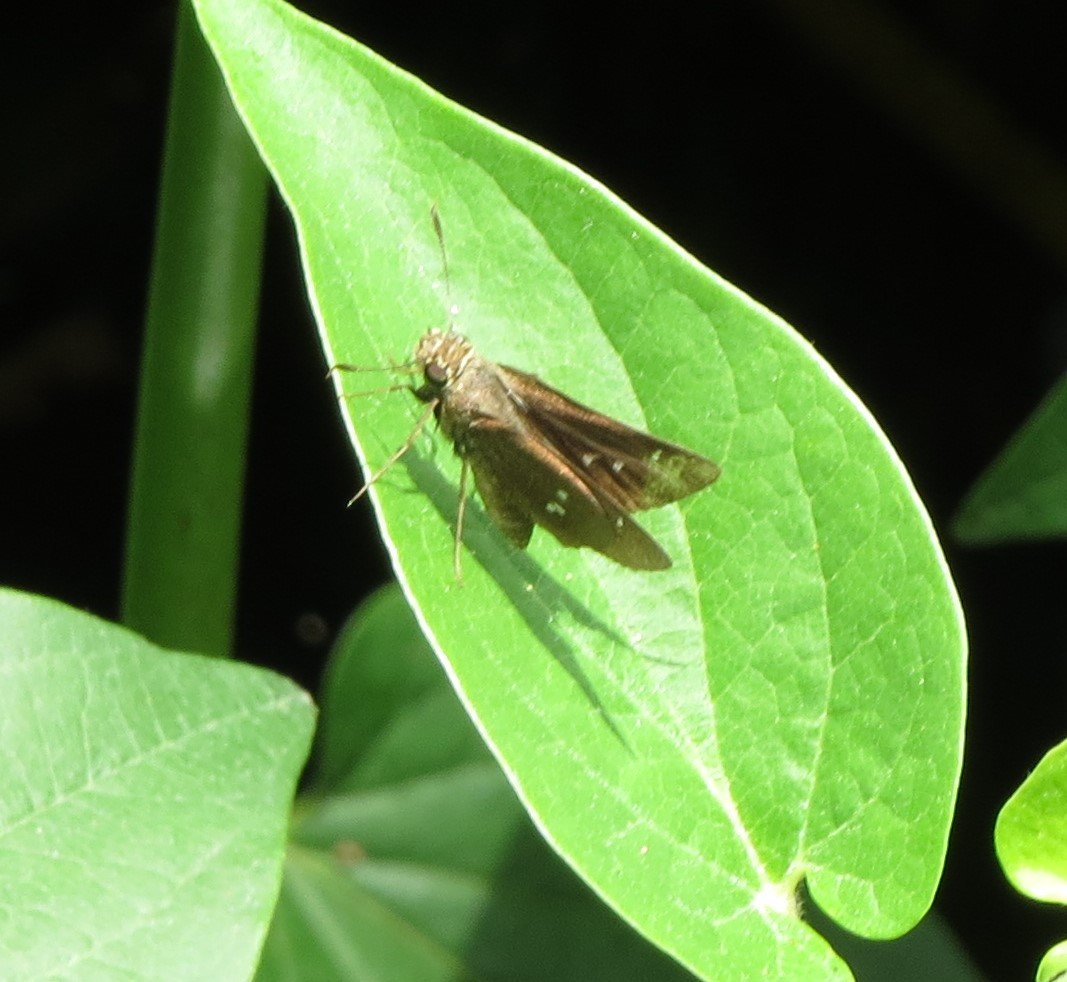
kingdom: Animalia
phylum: Arthropoda
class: Insecta
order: Lepidoptera
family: Hesperiidae
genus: Oligoria
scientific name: Oligoria maculata
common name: Twin-spot Skipper
